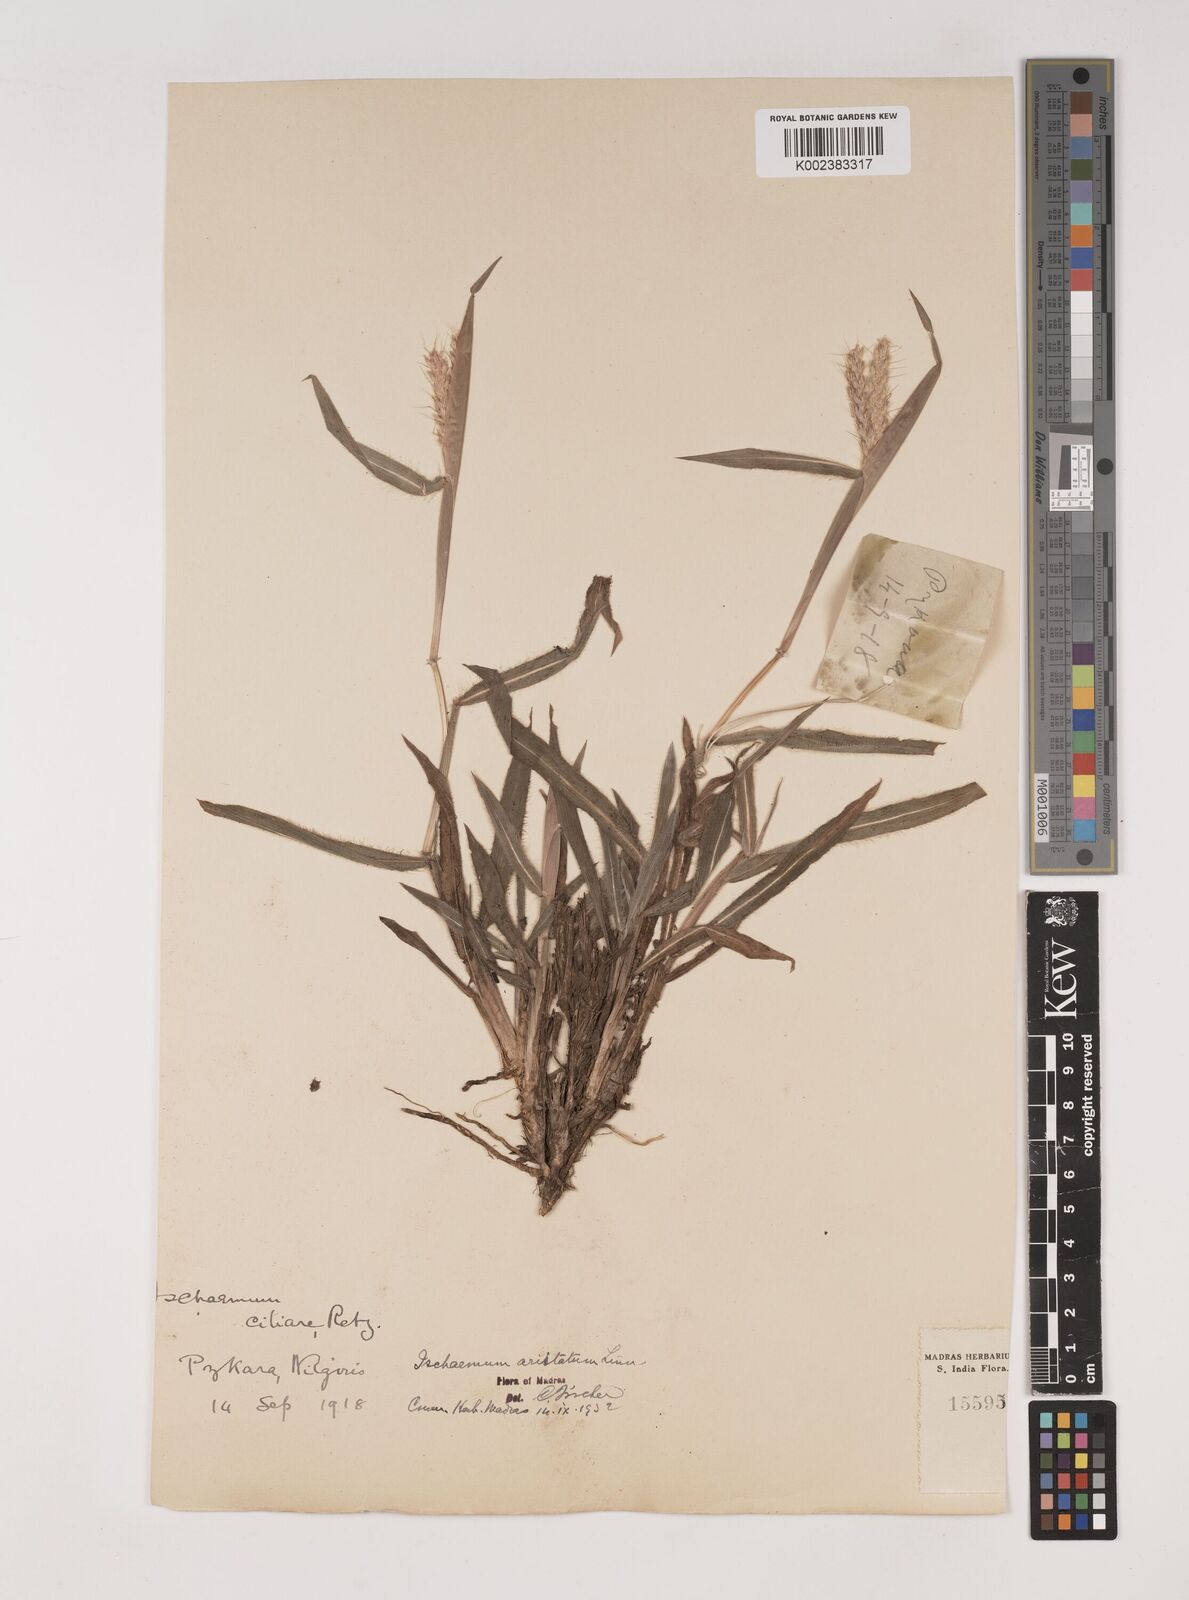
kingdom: Plantae
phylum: Tracheophyta
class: Liliopsida
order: Poales
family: Poaceae
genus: Polytrias
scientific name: Polytrias indica
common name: Indian murainagrass
